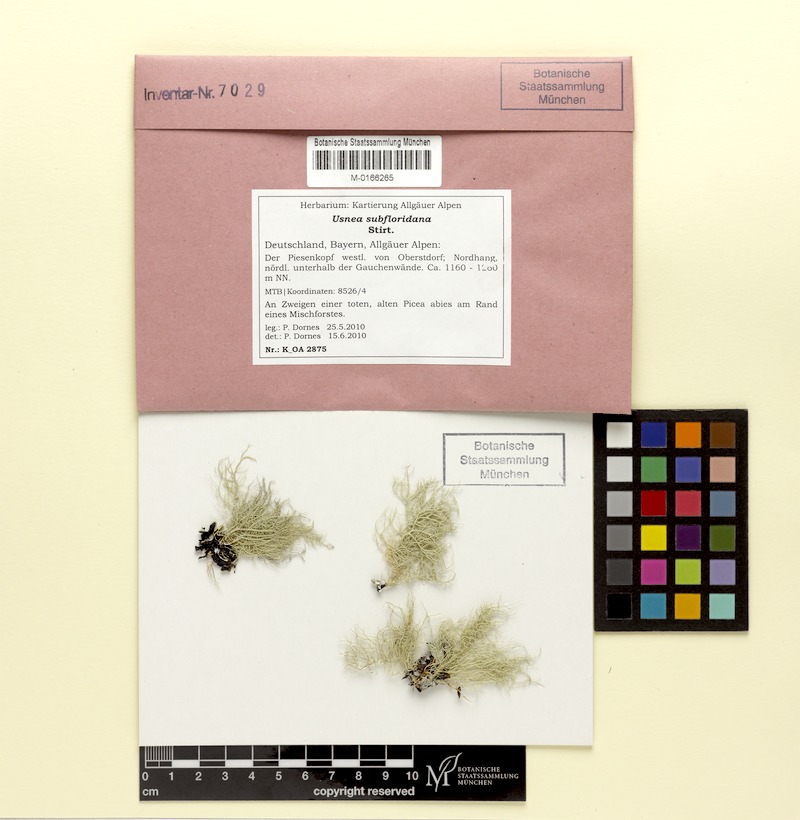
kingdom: Fungi
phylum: Ascomycota
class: Lecanoromycetes
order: Lecanorales
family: Parmeliaceae
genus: Usnea
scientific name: Usnea subfloridana
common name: Boreal beard lichen
